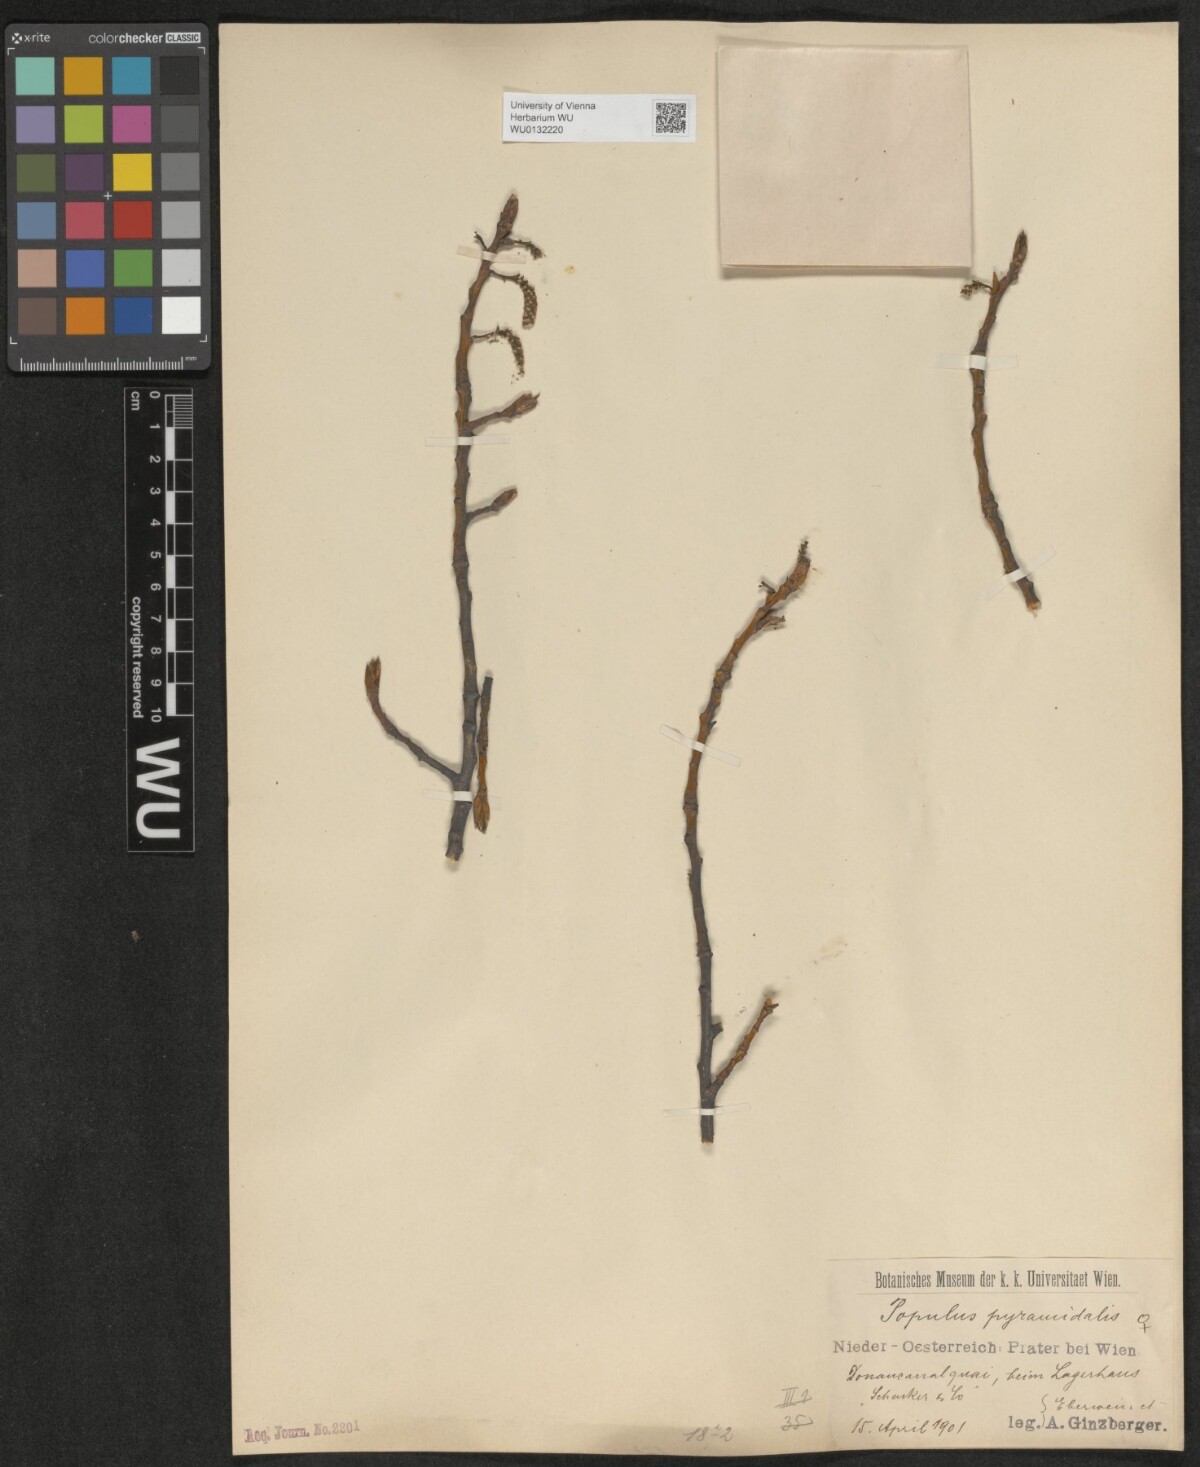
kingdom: Plantae
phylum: Tracheophyta
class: Magnoliopsida
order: Malpighiales
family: Salicaceae
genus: Populus
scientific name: Populus nigra
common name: Black poplar
